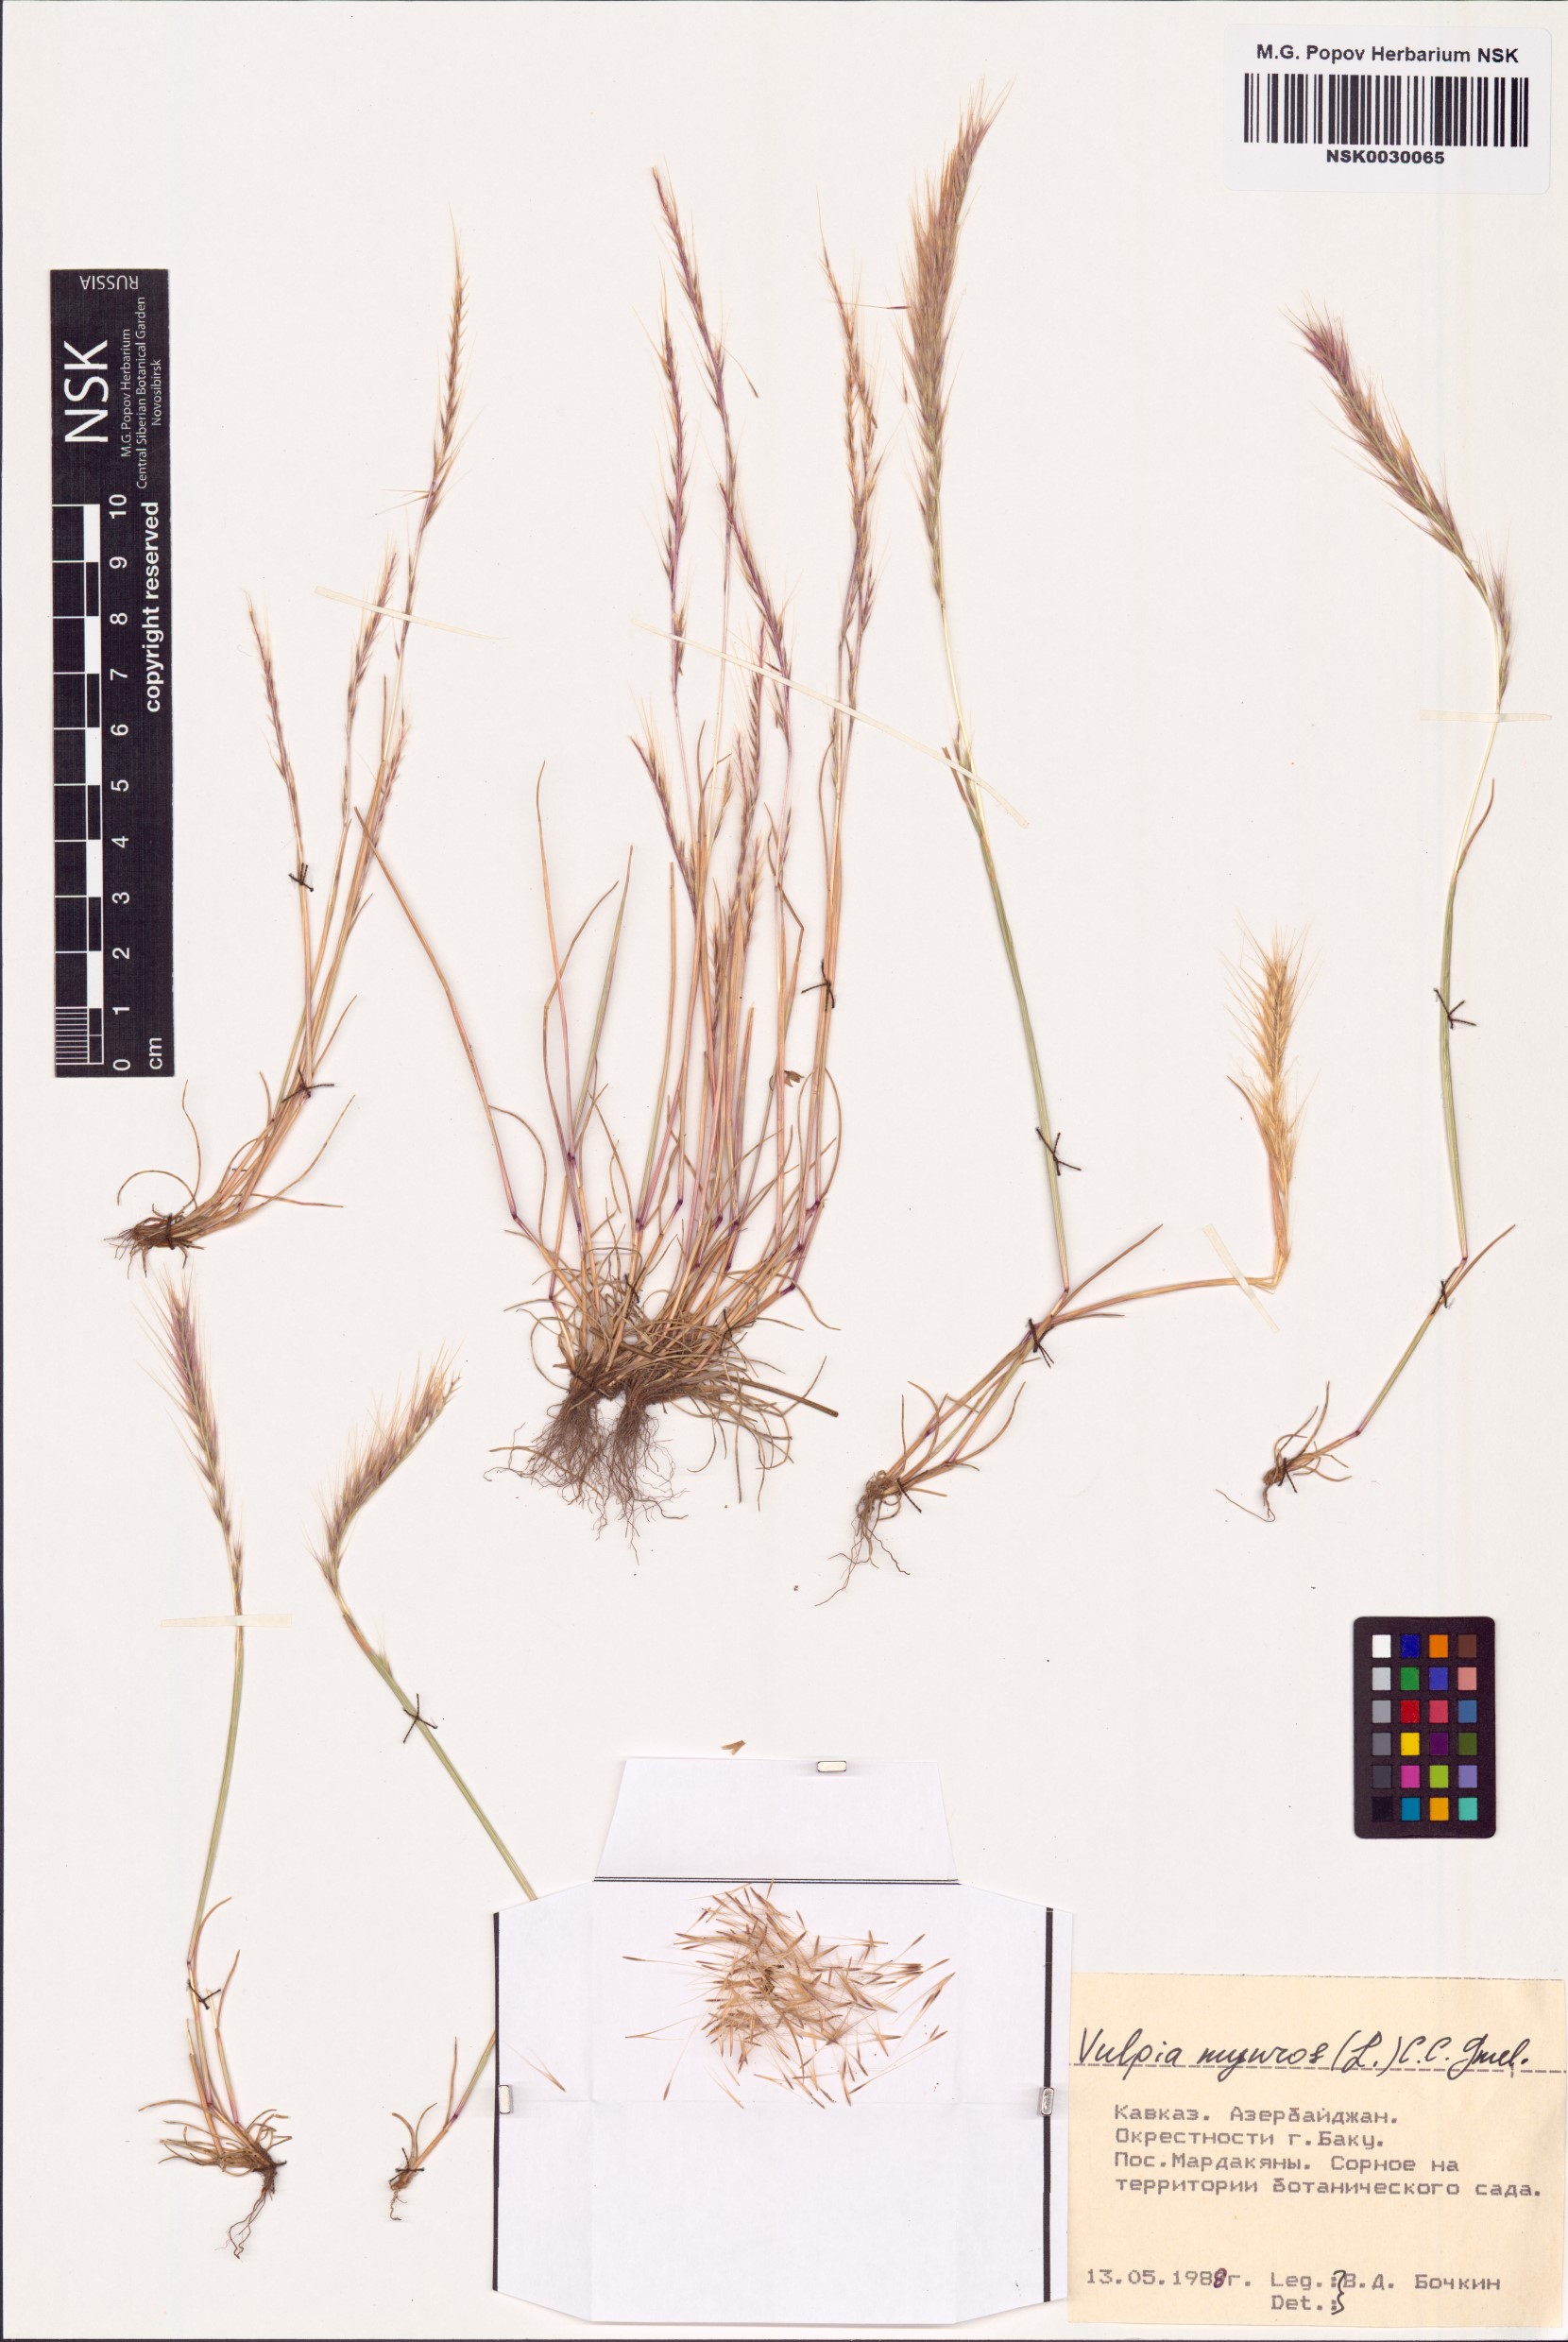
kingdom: Plantae
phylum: Tracheophyta
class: Liliopsida
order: Poales
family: Poaceae
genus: Festuca
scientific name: Festuca myuros
